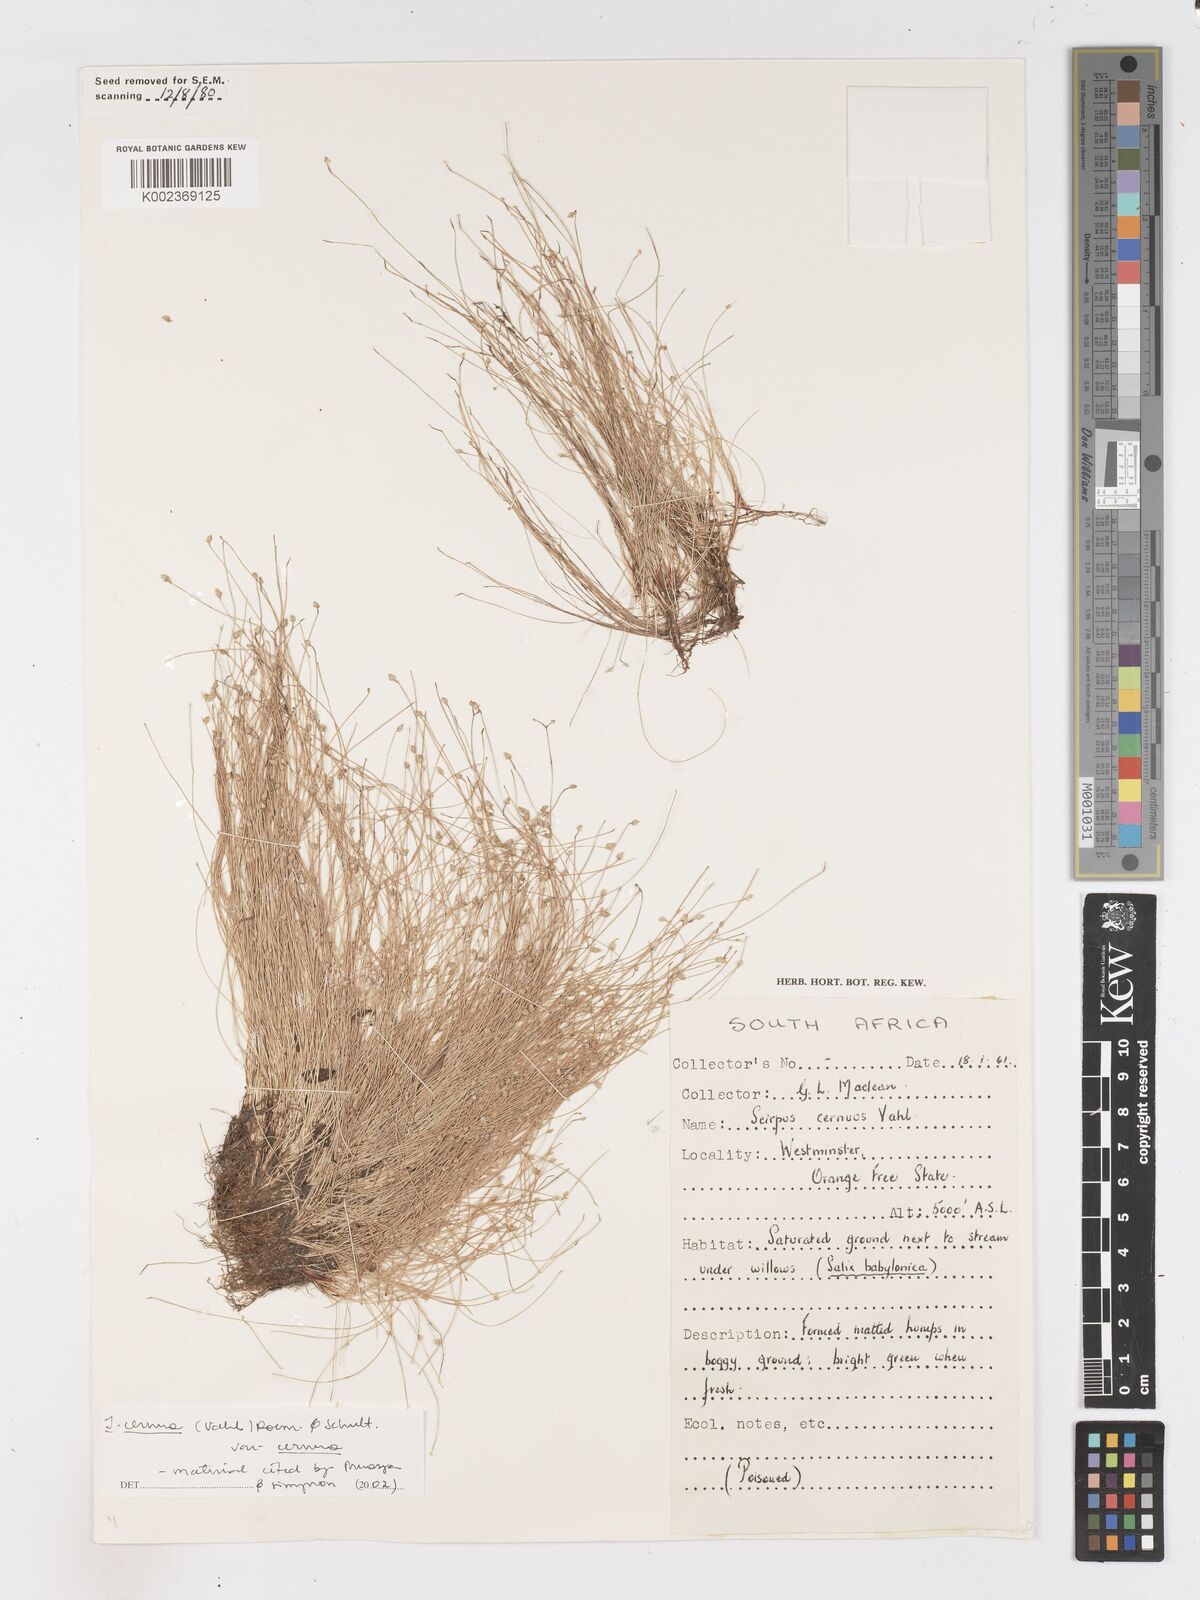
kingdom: Plantae
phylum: Tracheophyta
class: Liliopsida
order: Poales
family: Cyperaceae
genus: Isolepis
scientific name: Isolepis cernua
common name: Slender club-rush
